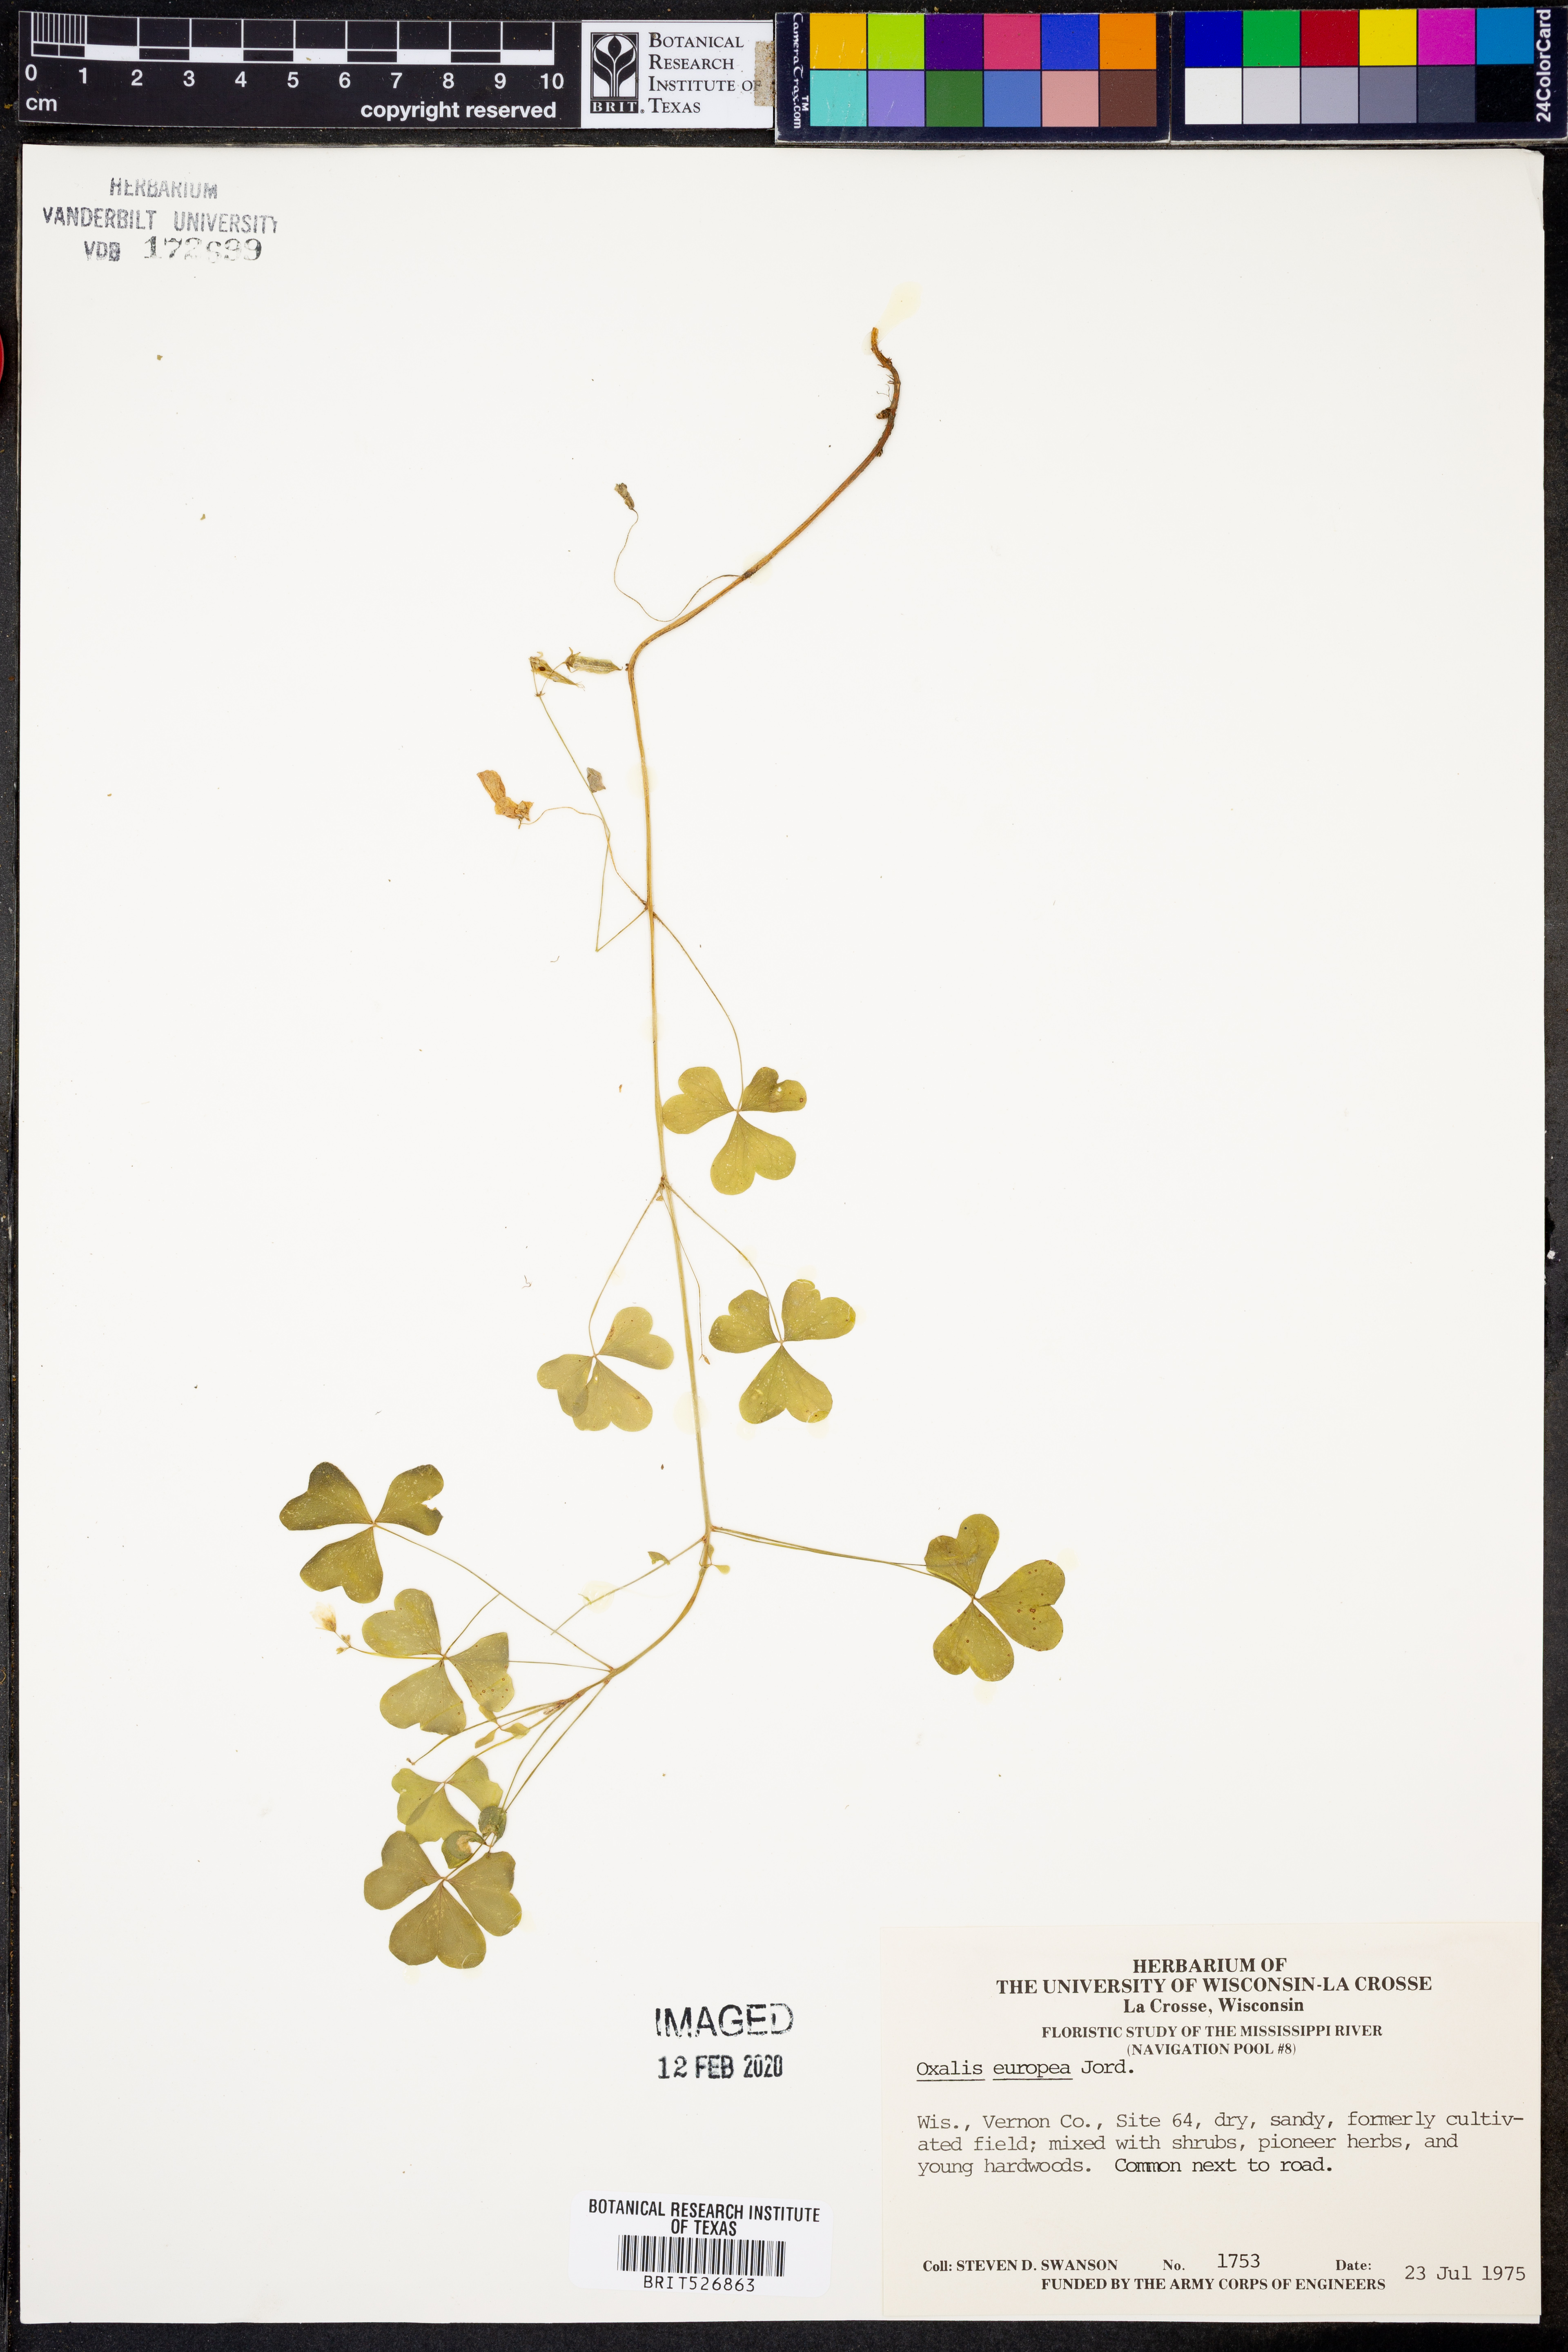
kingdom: Plantae
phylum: Tracheophyta
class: Magnoliopsida
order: Oxalidales
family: Oxalidaceae
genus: Oxalis
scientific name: Oxalis stricta
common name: Upright yellow-sorrel
